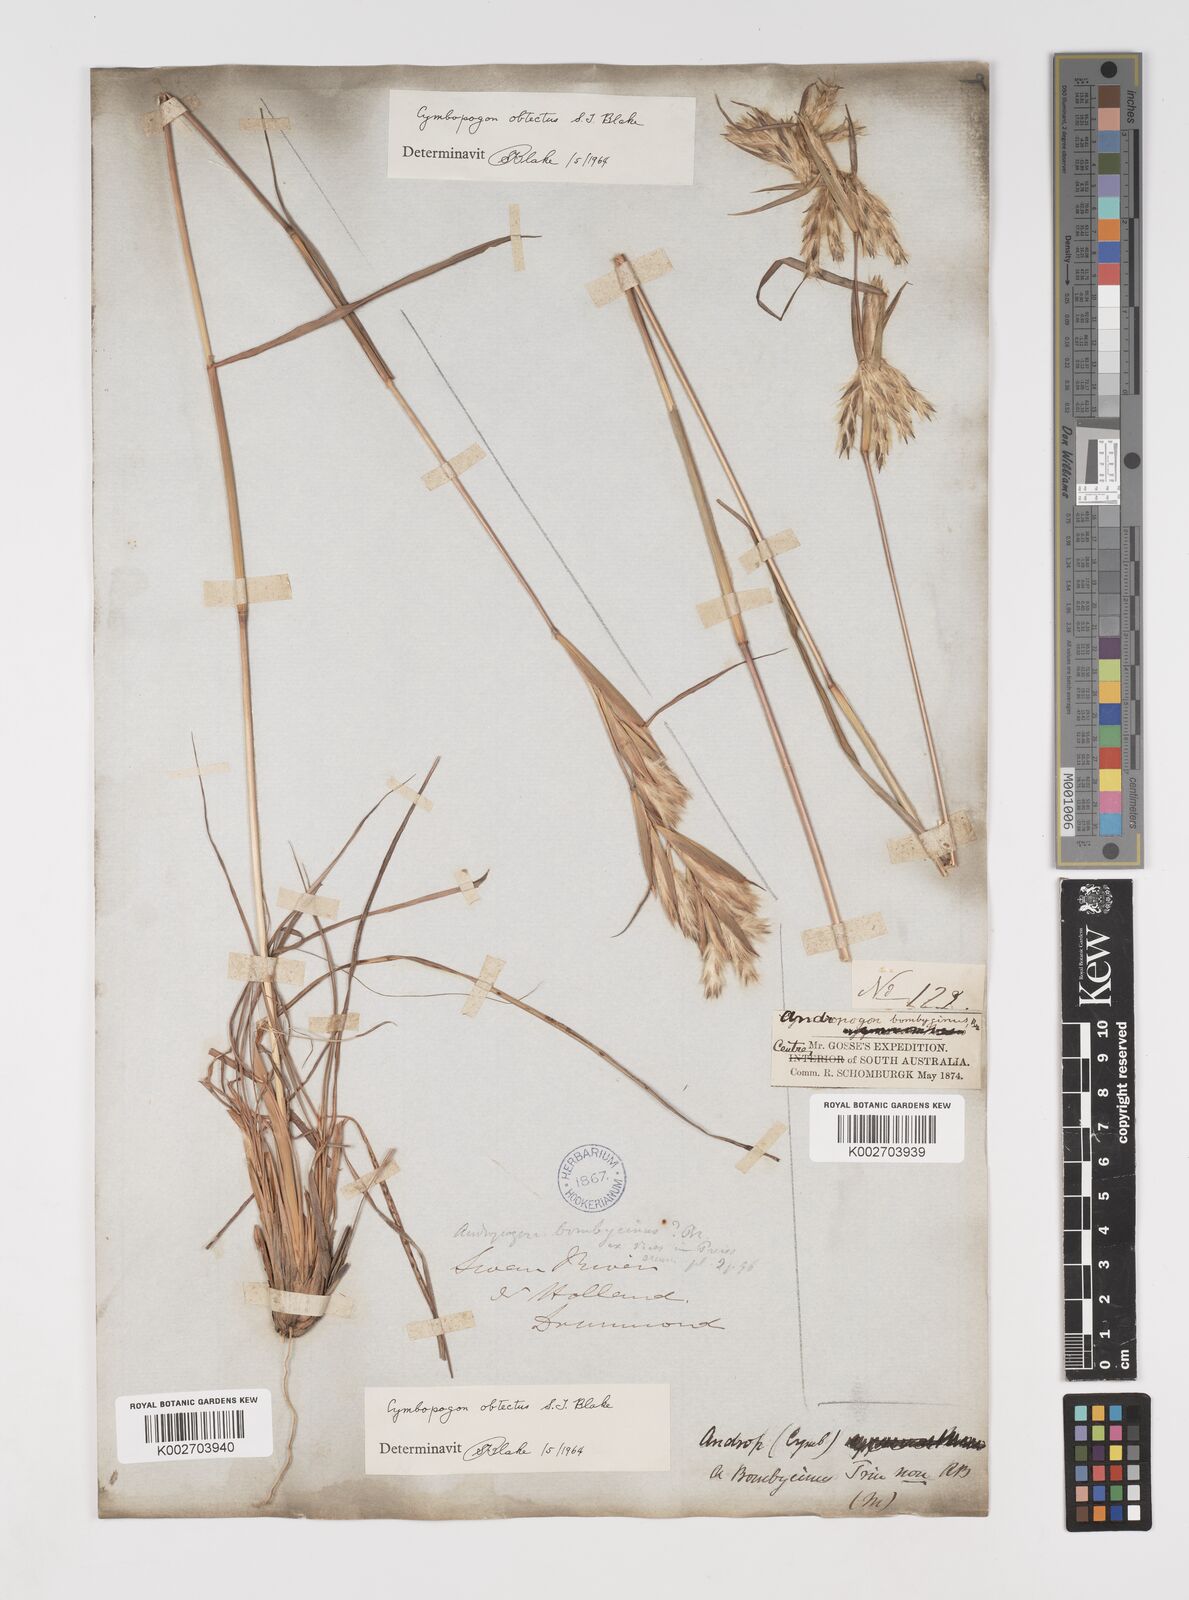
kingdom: Plantae
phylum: Tracheophyta
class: Liliopsida
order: Poales
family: Poaceae
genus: Cymbopogon
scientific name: Cymbopogon obtectus
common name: Silky heads
